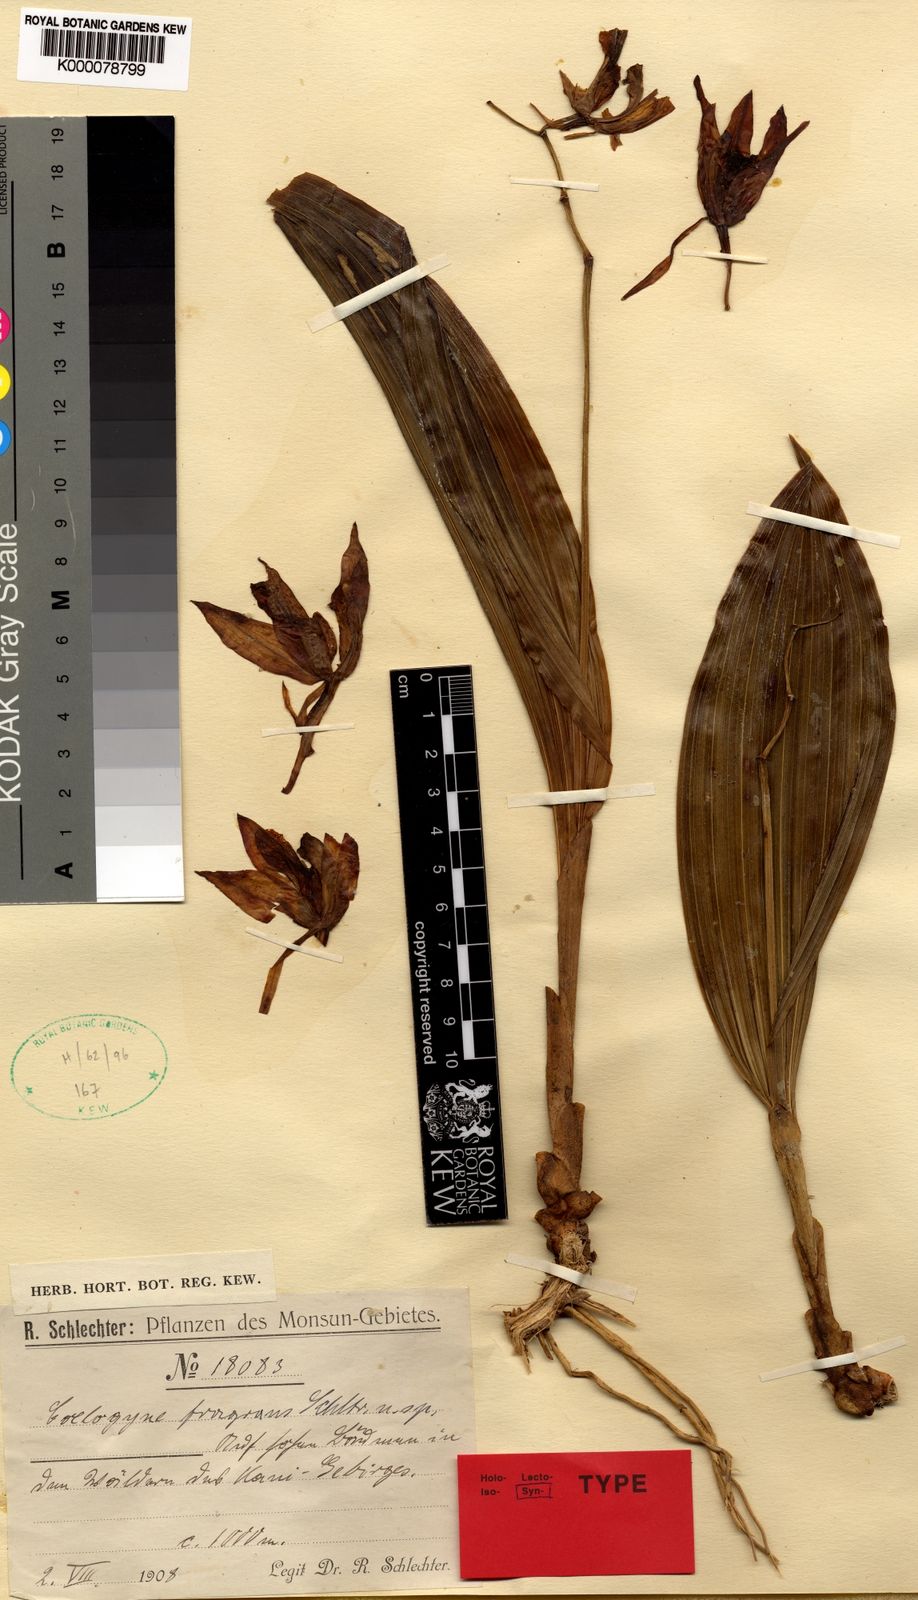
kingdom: Plantae
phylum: Tracheophyta
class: Liliopsida
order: Asparagales
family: Orchidaceae
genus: Coelogyne
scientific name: Coelogyne fragrans
